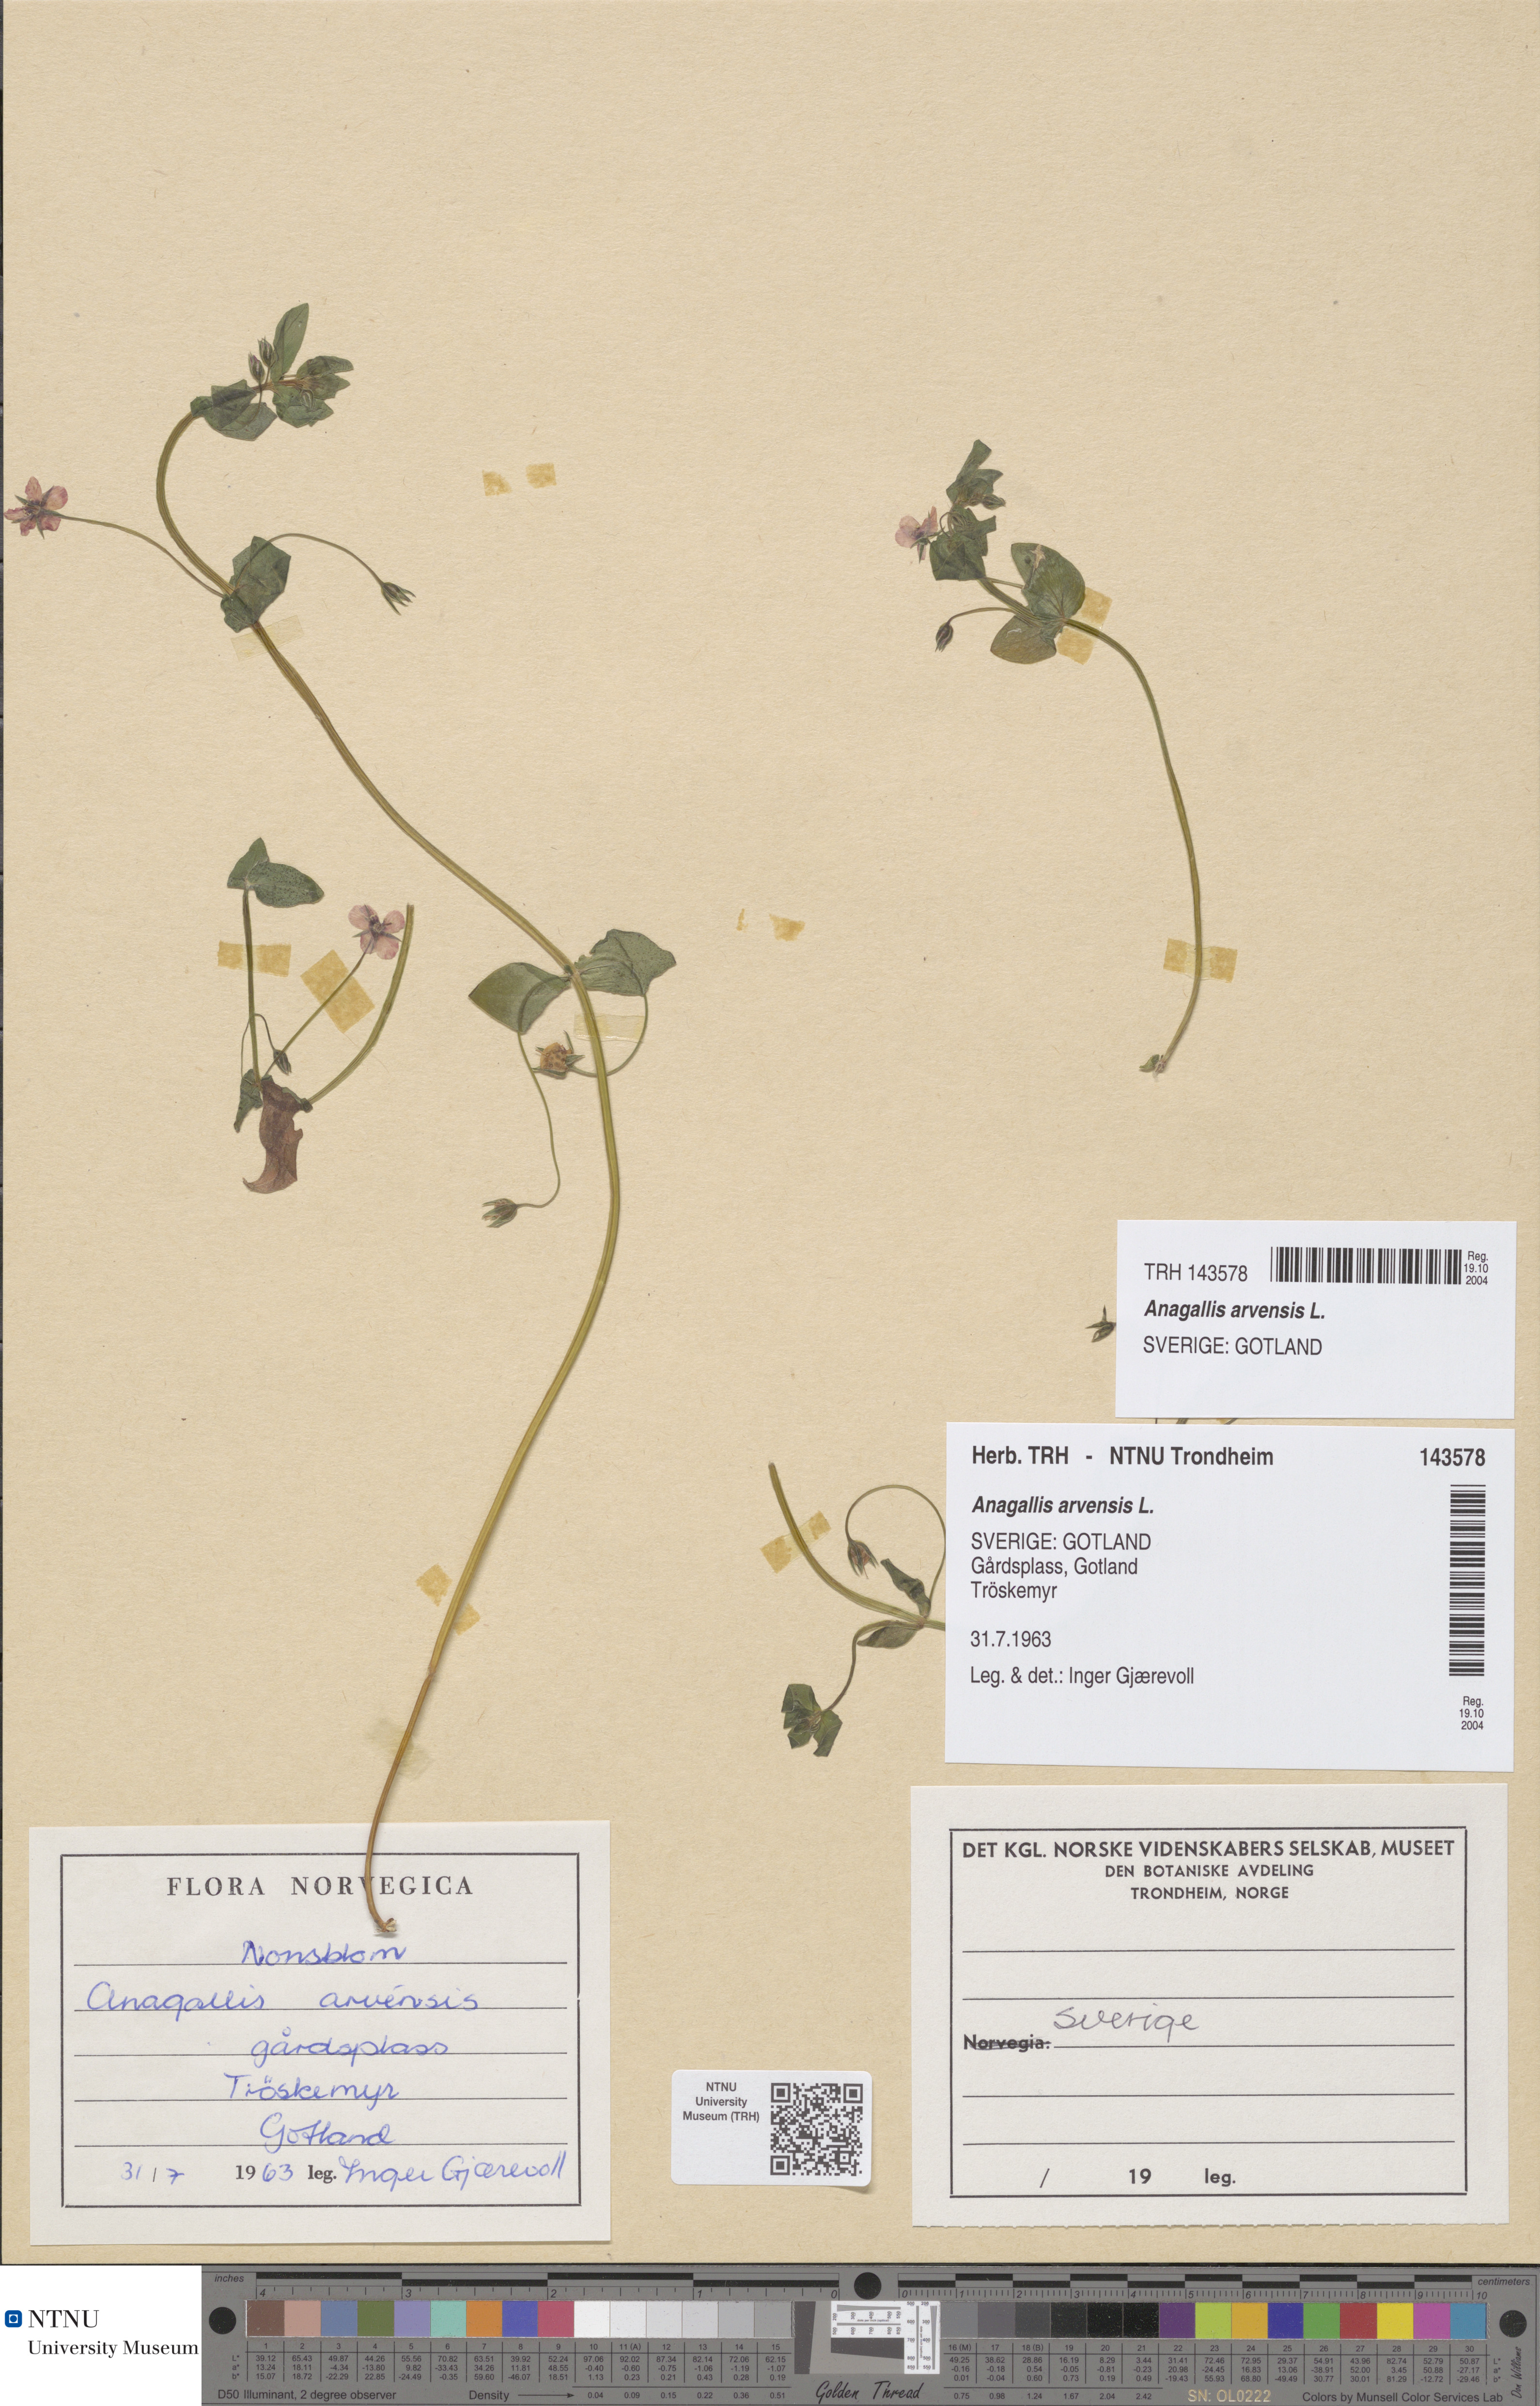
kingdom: Plantae
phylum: Tracheophyta
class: Magnoliopsida
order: Ericales
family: Primulaceae
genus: Lysimachia
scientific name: Lysimachia arvensis
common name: Scarlet pimpernel
